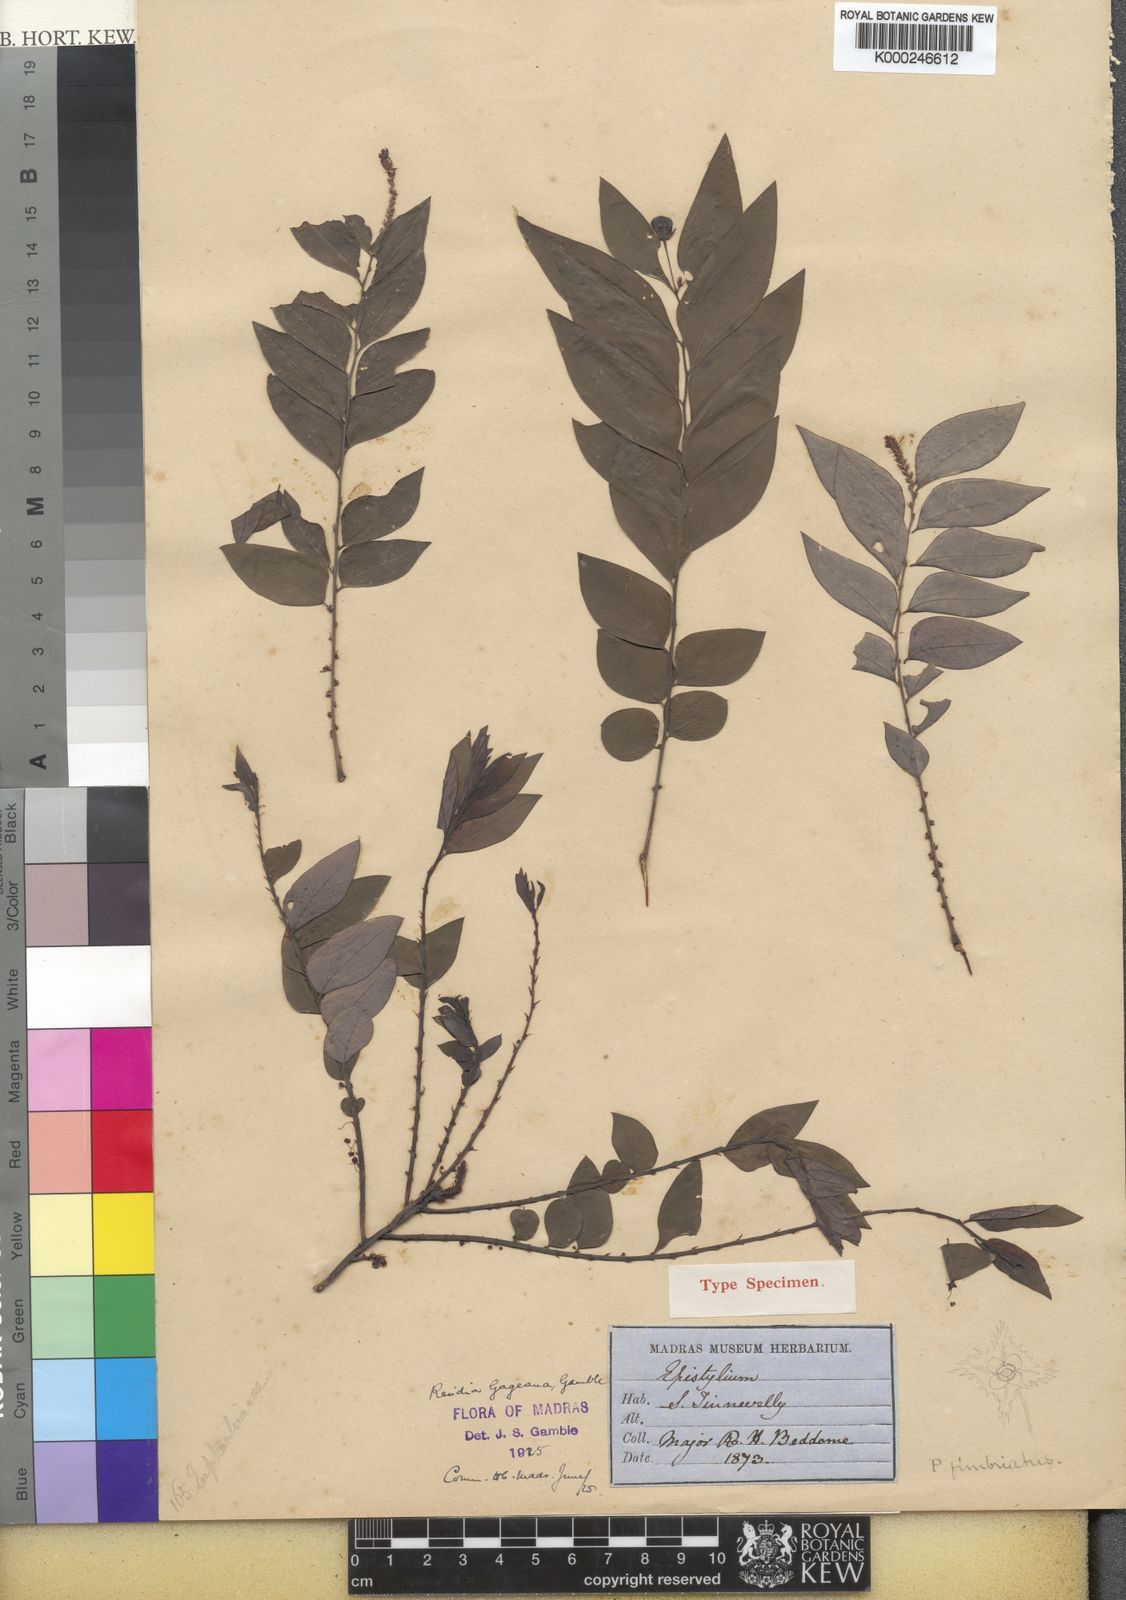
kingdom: Plantae
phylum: Tracheophyta
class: Magnoliopsida
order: Malpighiales
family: Phyllanthaceae
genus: Phyllanthus
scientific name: Phyllanthus gageanus
